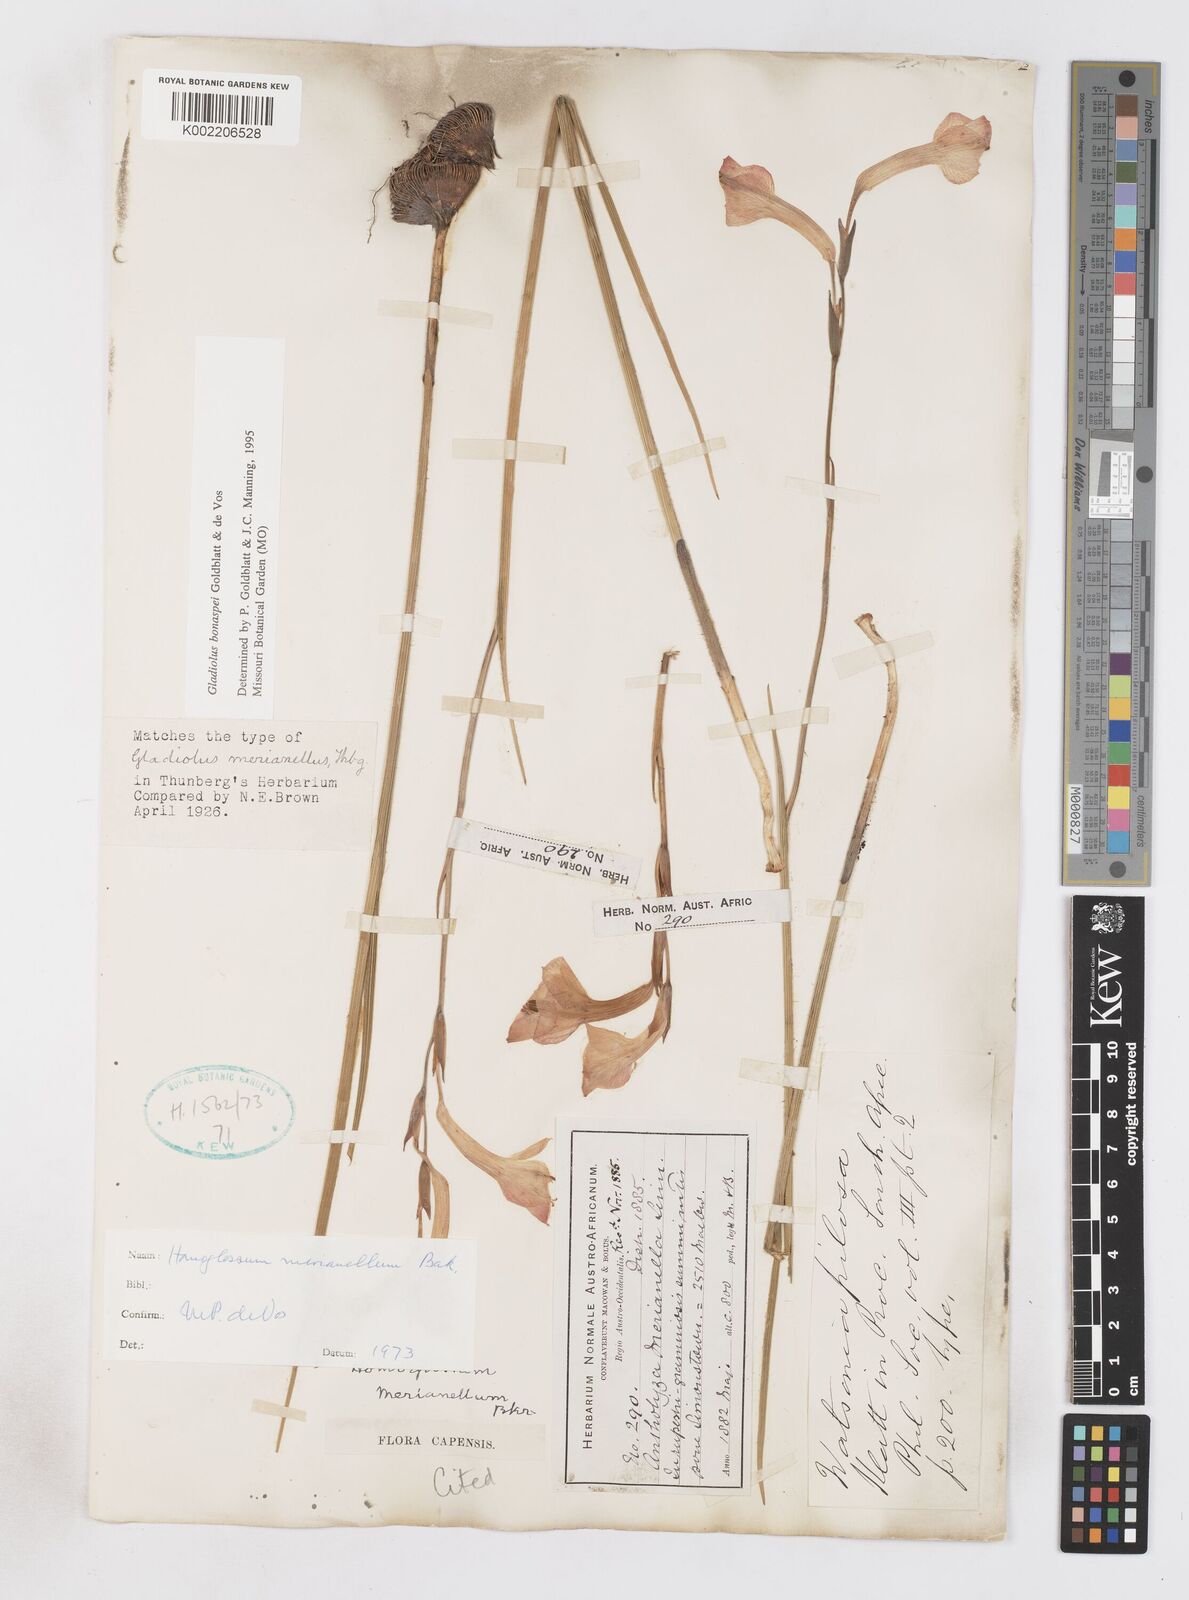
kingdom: Plantae
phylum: Tracheophyta
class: Liliopsida
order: Asparagales
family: Iridaceae
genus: Gladiolus
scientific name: Gladiolus merianellus
